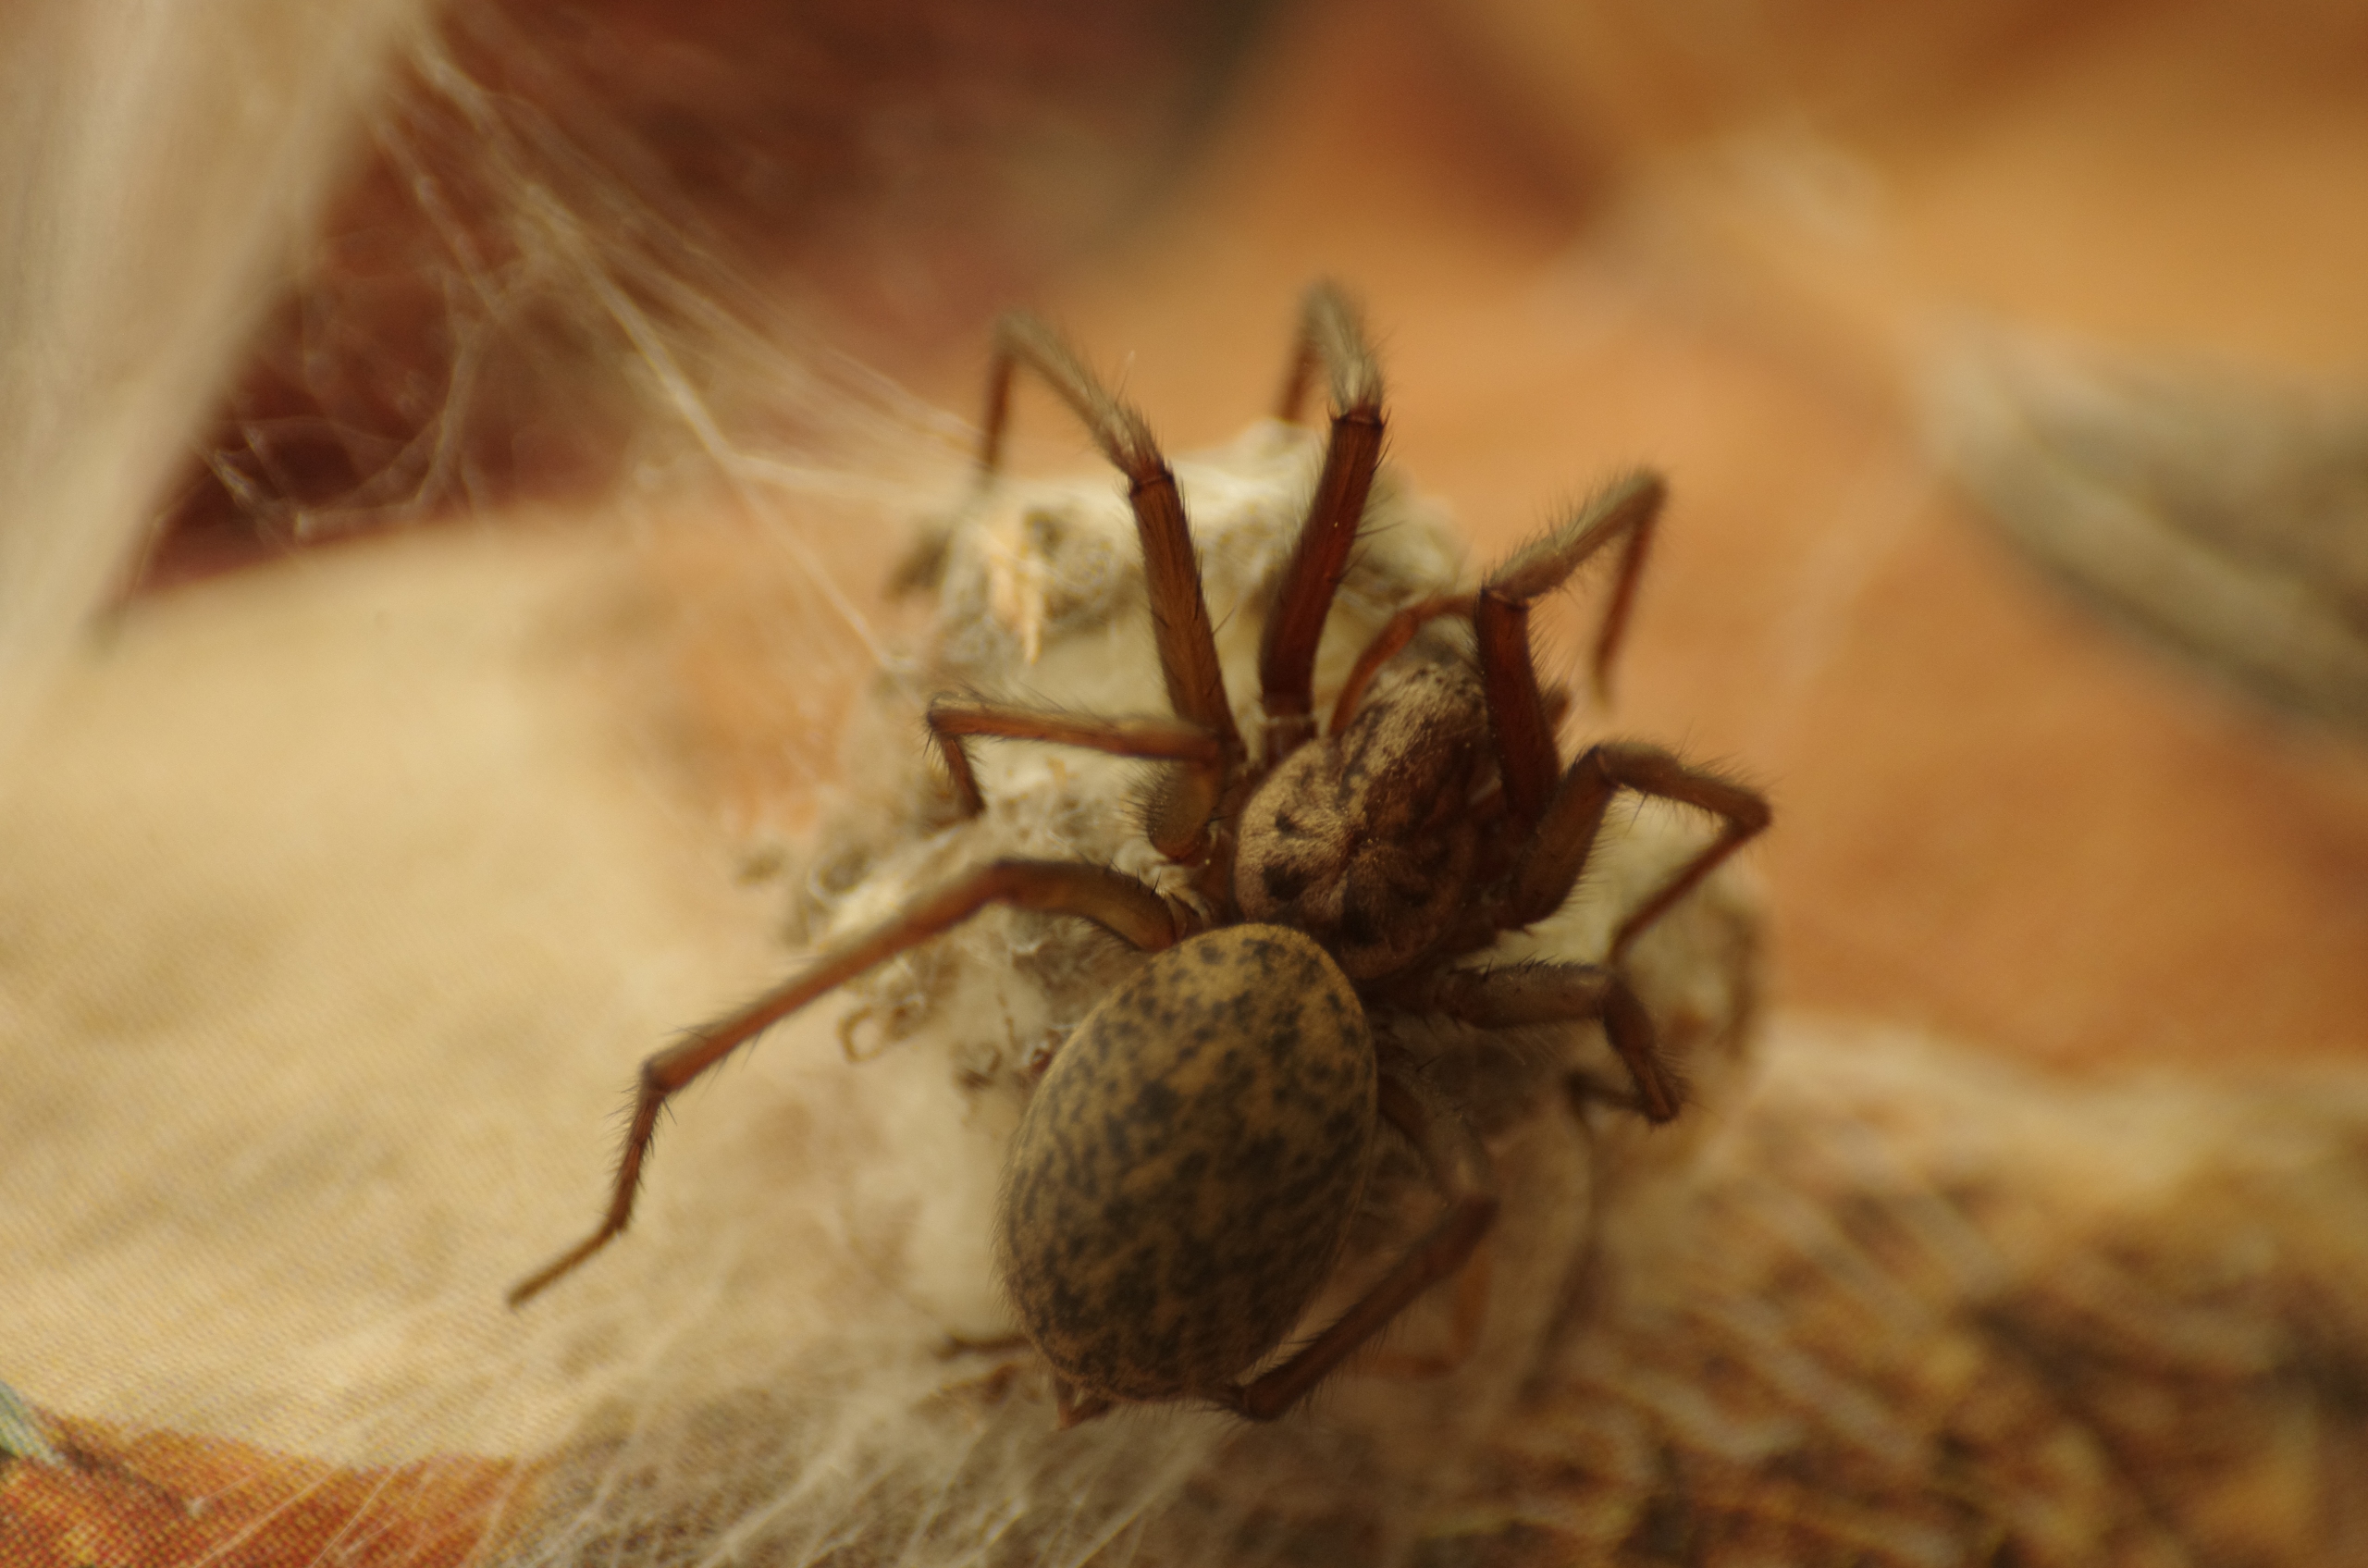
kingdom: Animalia
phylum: Arthropoda
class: Arachnida
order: Araneae
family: Agelenidae
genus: Eratigena
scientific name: Eratigena atrica
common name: Stor husedderkop
